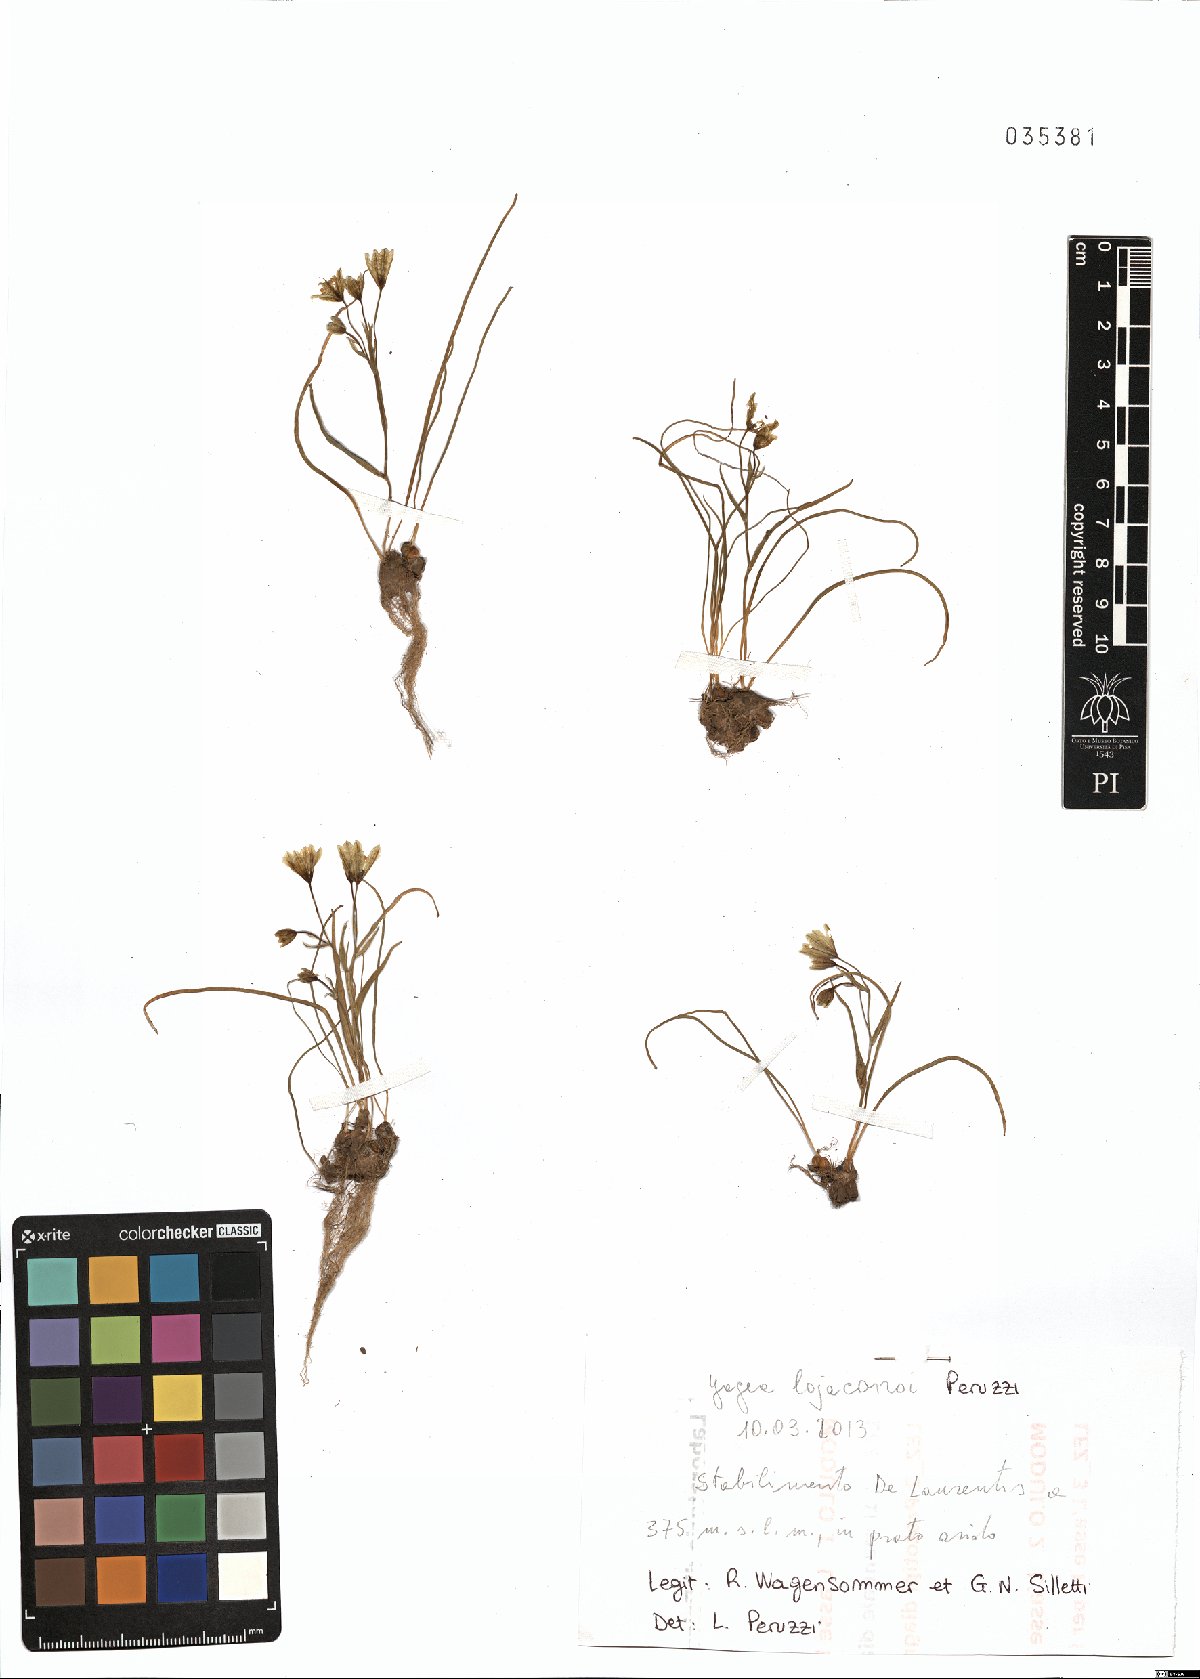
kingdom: Plantae
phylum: Tracheophyta
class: Liliopsida
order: Liliales
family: Liliaceae
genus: Gagea
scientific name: Gagea lojaconoi
